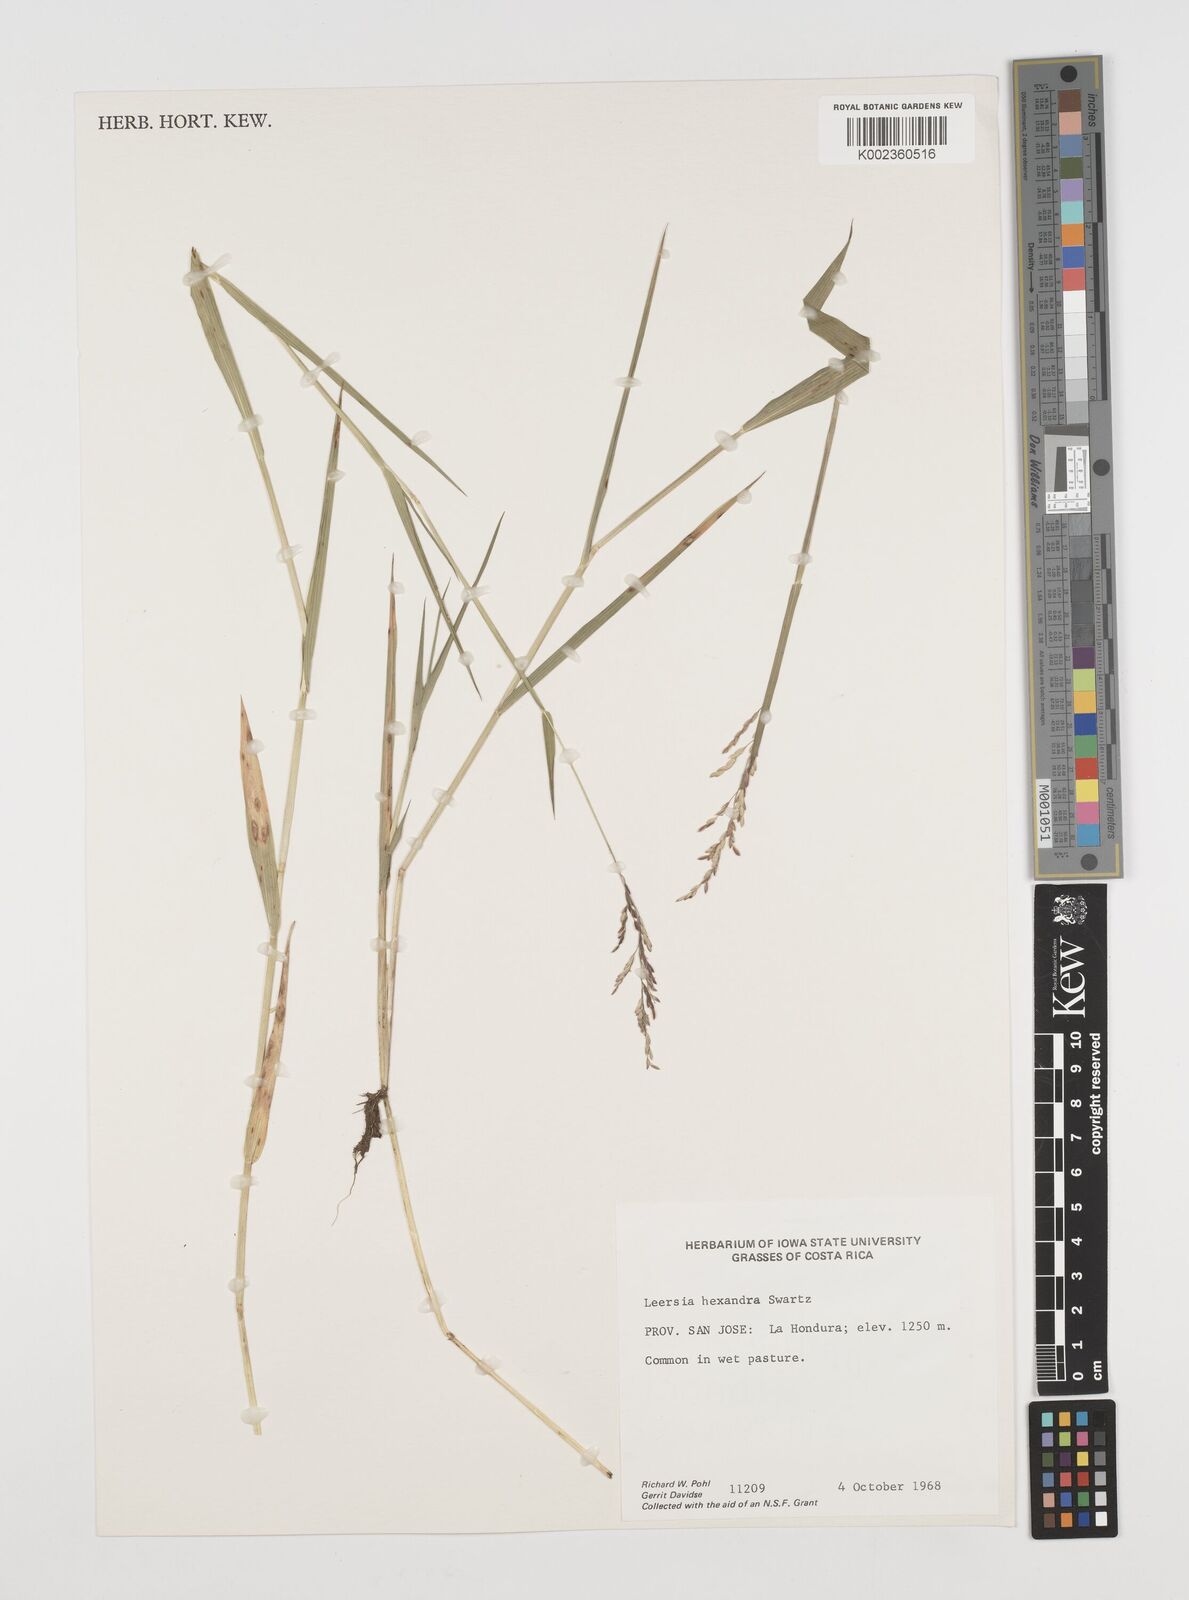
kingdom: Plantae
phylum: Tracheophyta
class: Liliopsida
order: Poales
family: Poaceae
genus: Leersia
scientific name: Leersia hexandra
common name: Southern cut grass
